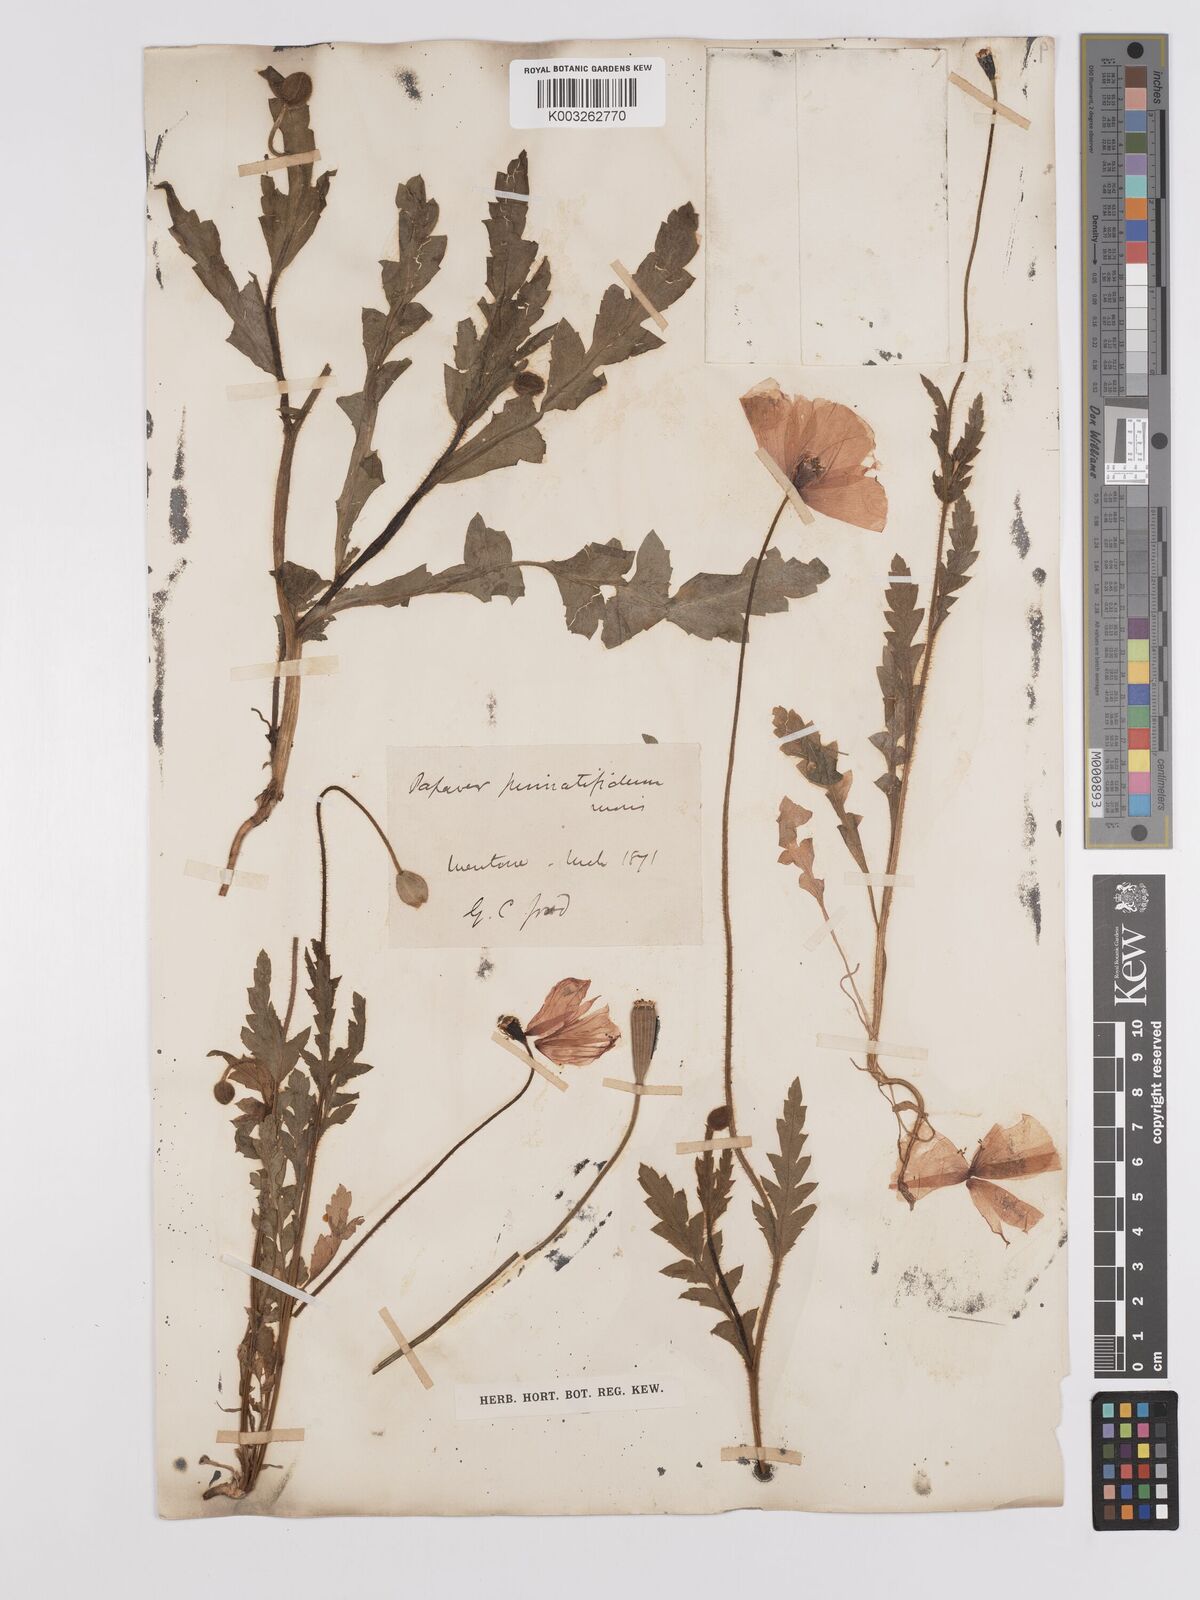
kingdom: Plantae
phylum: Tracheophyta
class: Magnoliopsida
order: Ranunculales
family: Papaveraceae
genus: Papaver
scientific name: Papaver pinnatifidum
